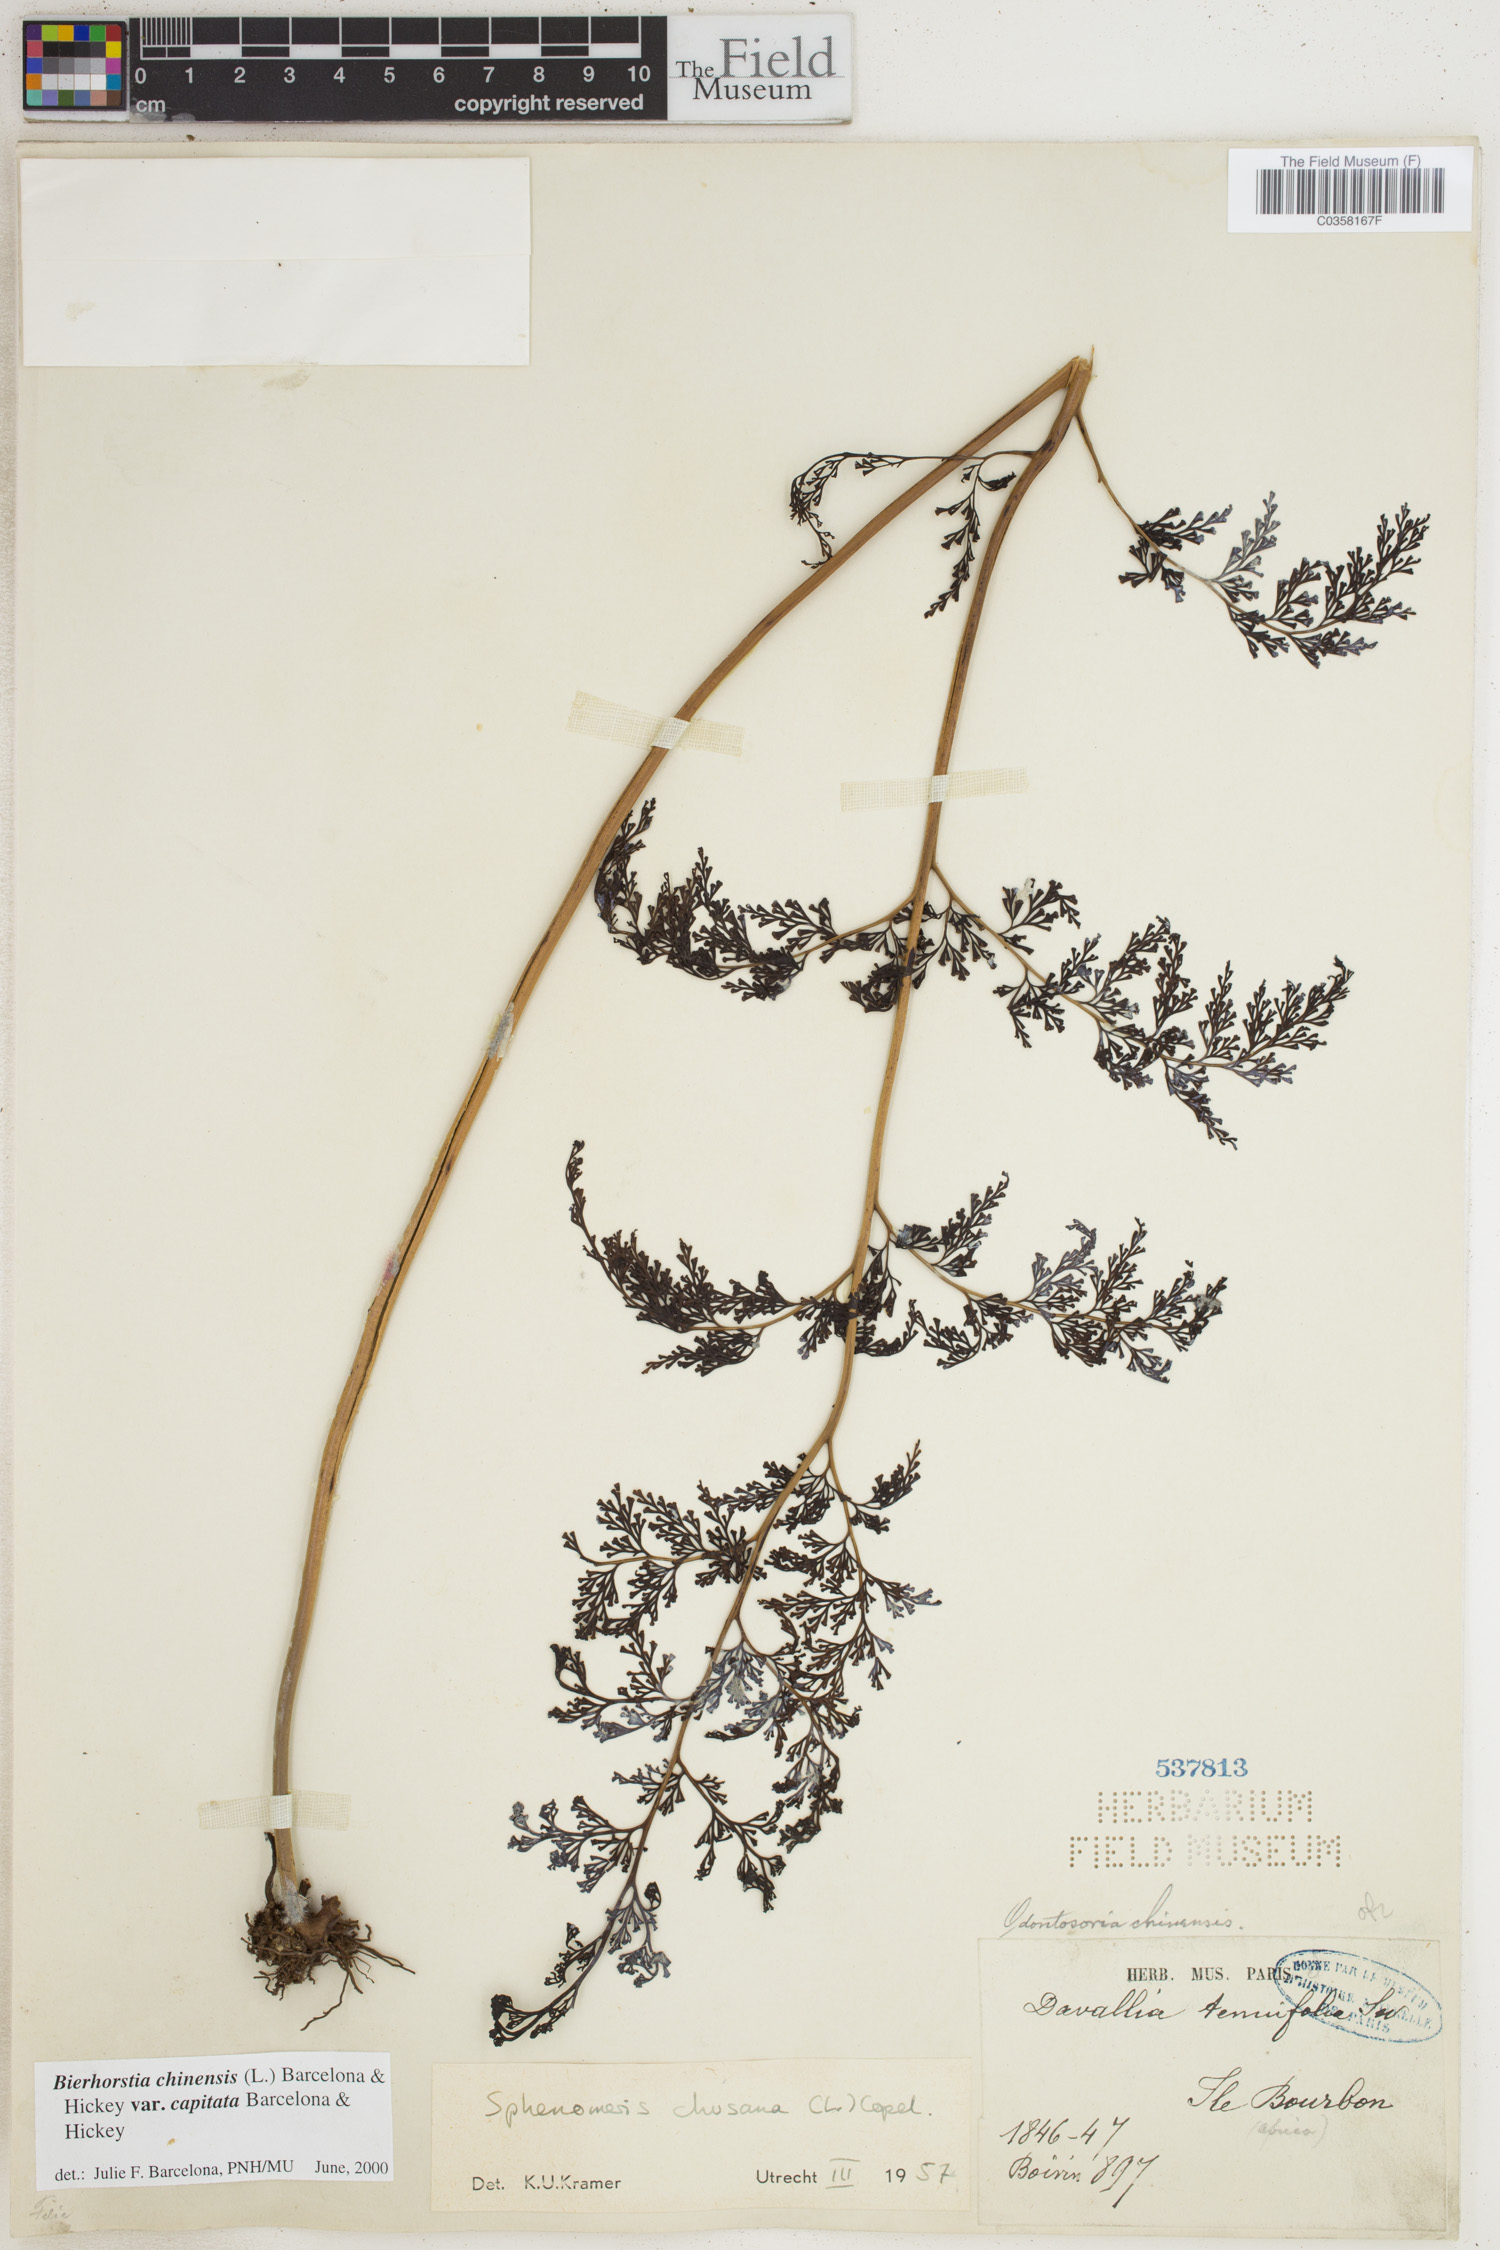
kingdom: Plantae
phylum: Tracheophyta
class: Polypodiopsida
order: Polypodiales
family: Lindsaeaceae
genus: Odontosoria
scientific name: Odontosoria chinensis
